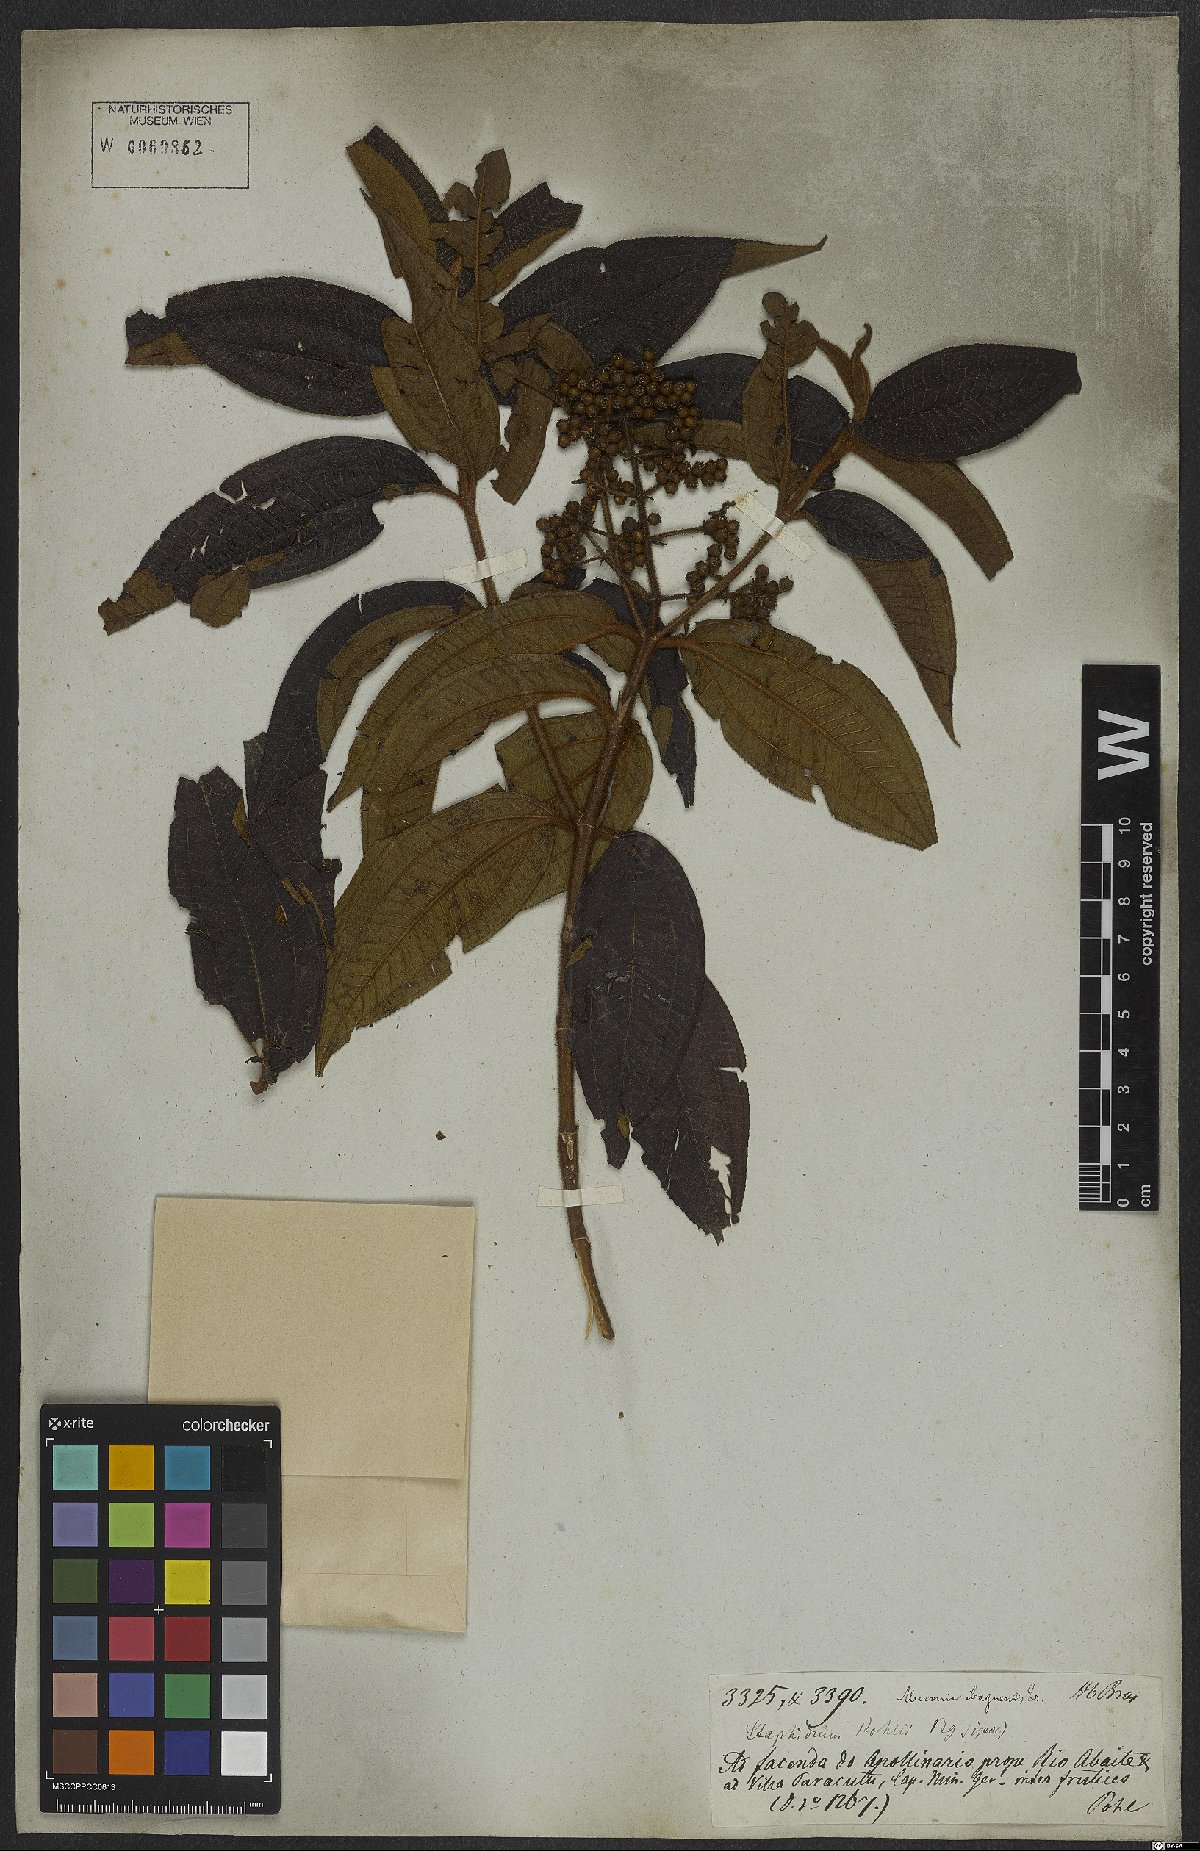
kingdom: Plantae
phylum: Tracheophyta
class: Magnoliopsida
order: Myrtales
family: Melastomataceae
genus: Miconia
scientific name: Miconia ibaguensis
